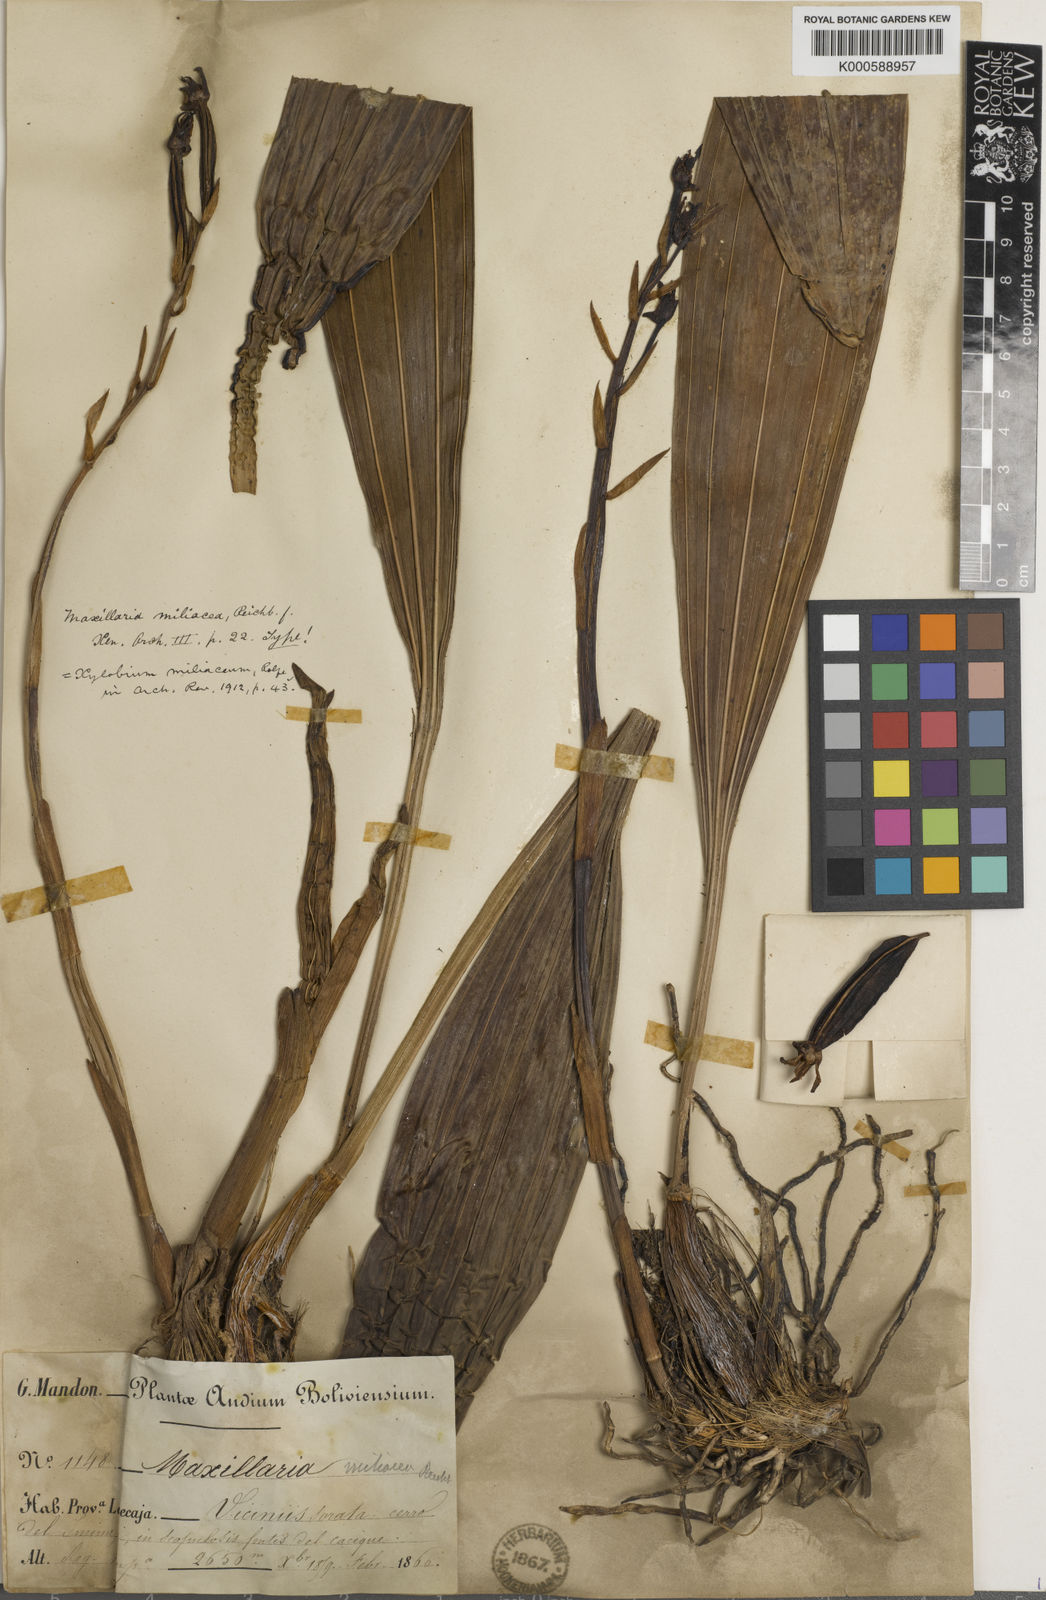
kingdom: Plantae
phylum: Tracheophyta
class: Liliopsida
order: Asparagales
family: Orchidaceae
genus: Xylobium
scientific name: Xylobium miliaceum
